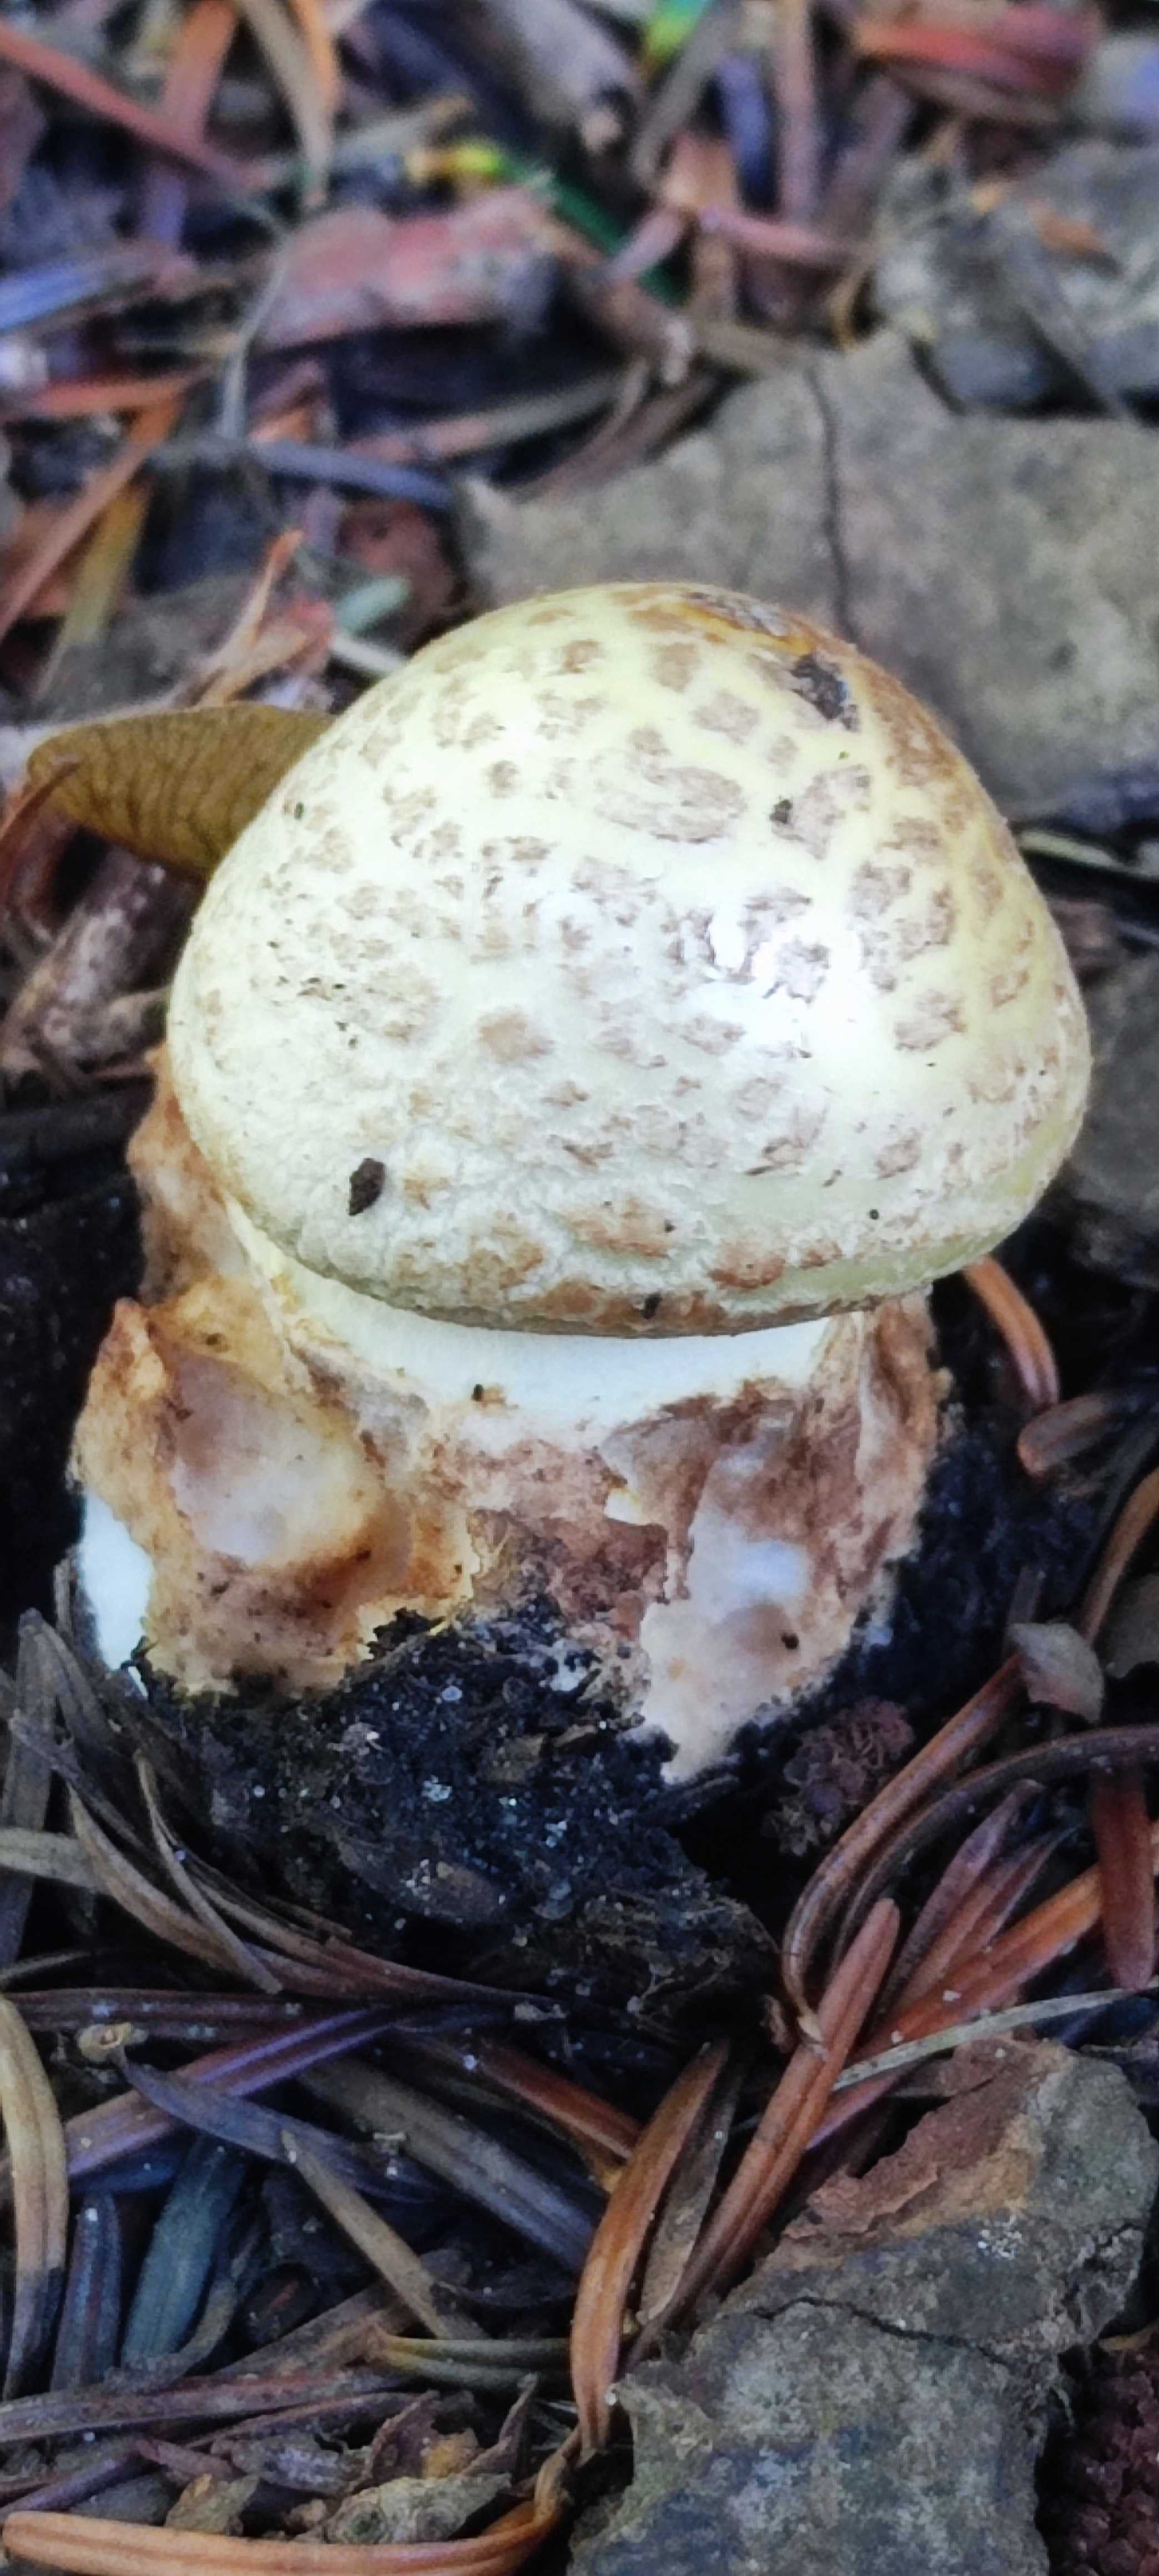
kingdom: Fungi
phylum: Basidiomycota
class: Agaricomycetes
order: Agaricales
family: Amanitaceae
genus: Amanita
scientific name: Amanita citrina
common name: kugleknoldet fluesvamp
